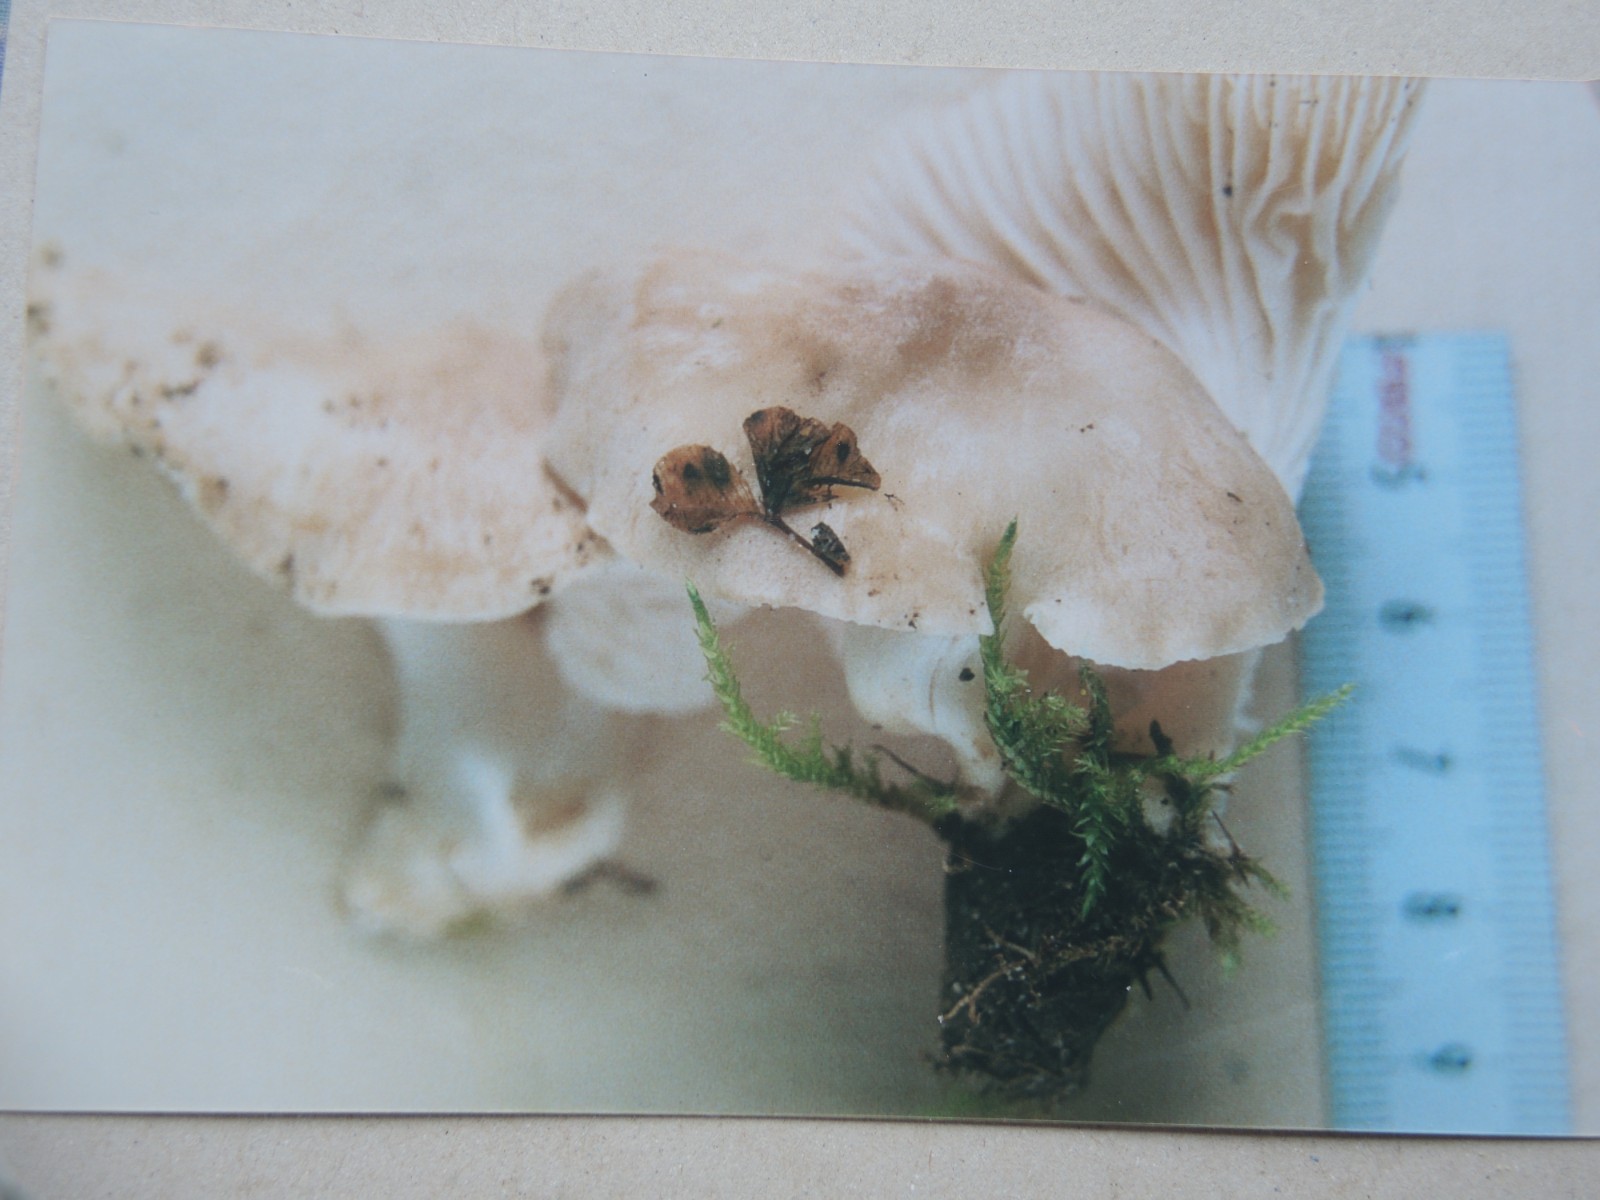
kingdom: Fungi
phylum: Basidiomycota
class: Agaricomycetes
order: Agaricales
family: Hygrophoraceae
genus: Cuphophyllus
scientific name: Cuphophyllus pratensis
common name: bleg vokshat
